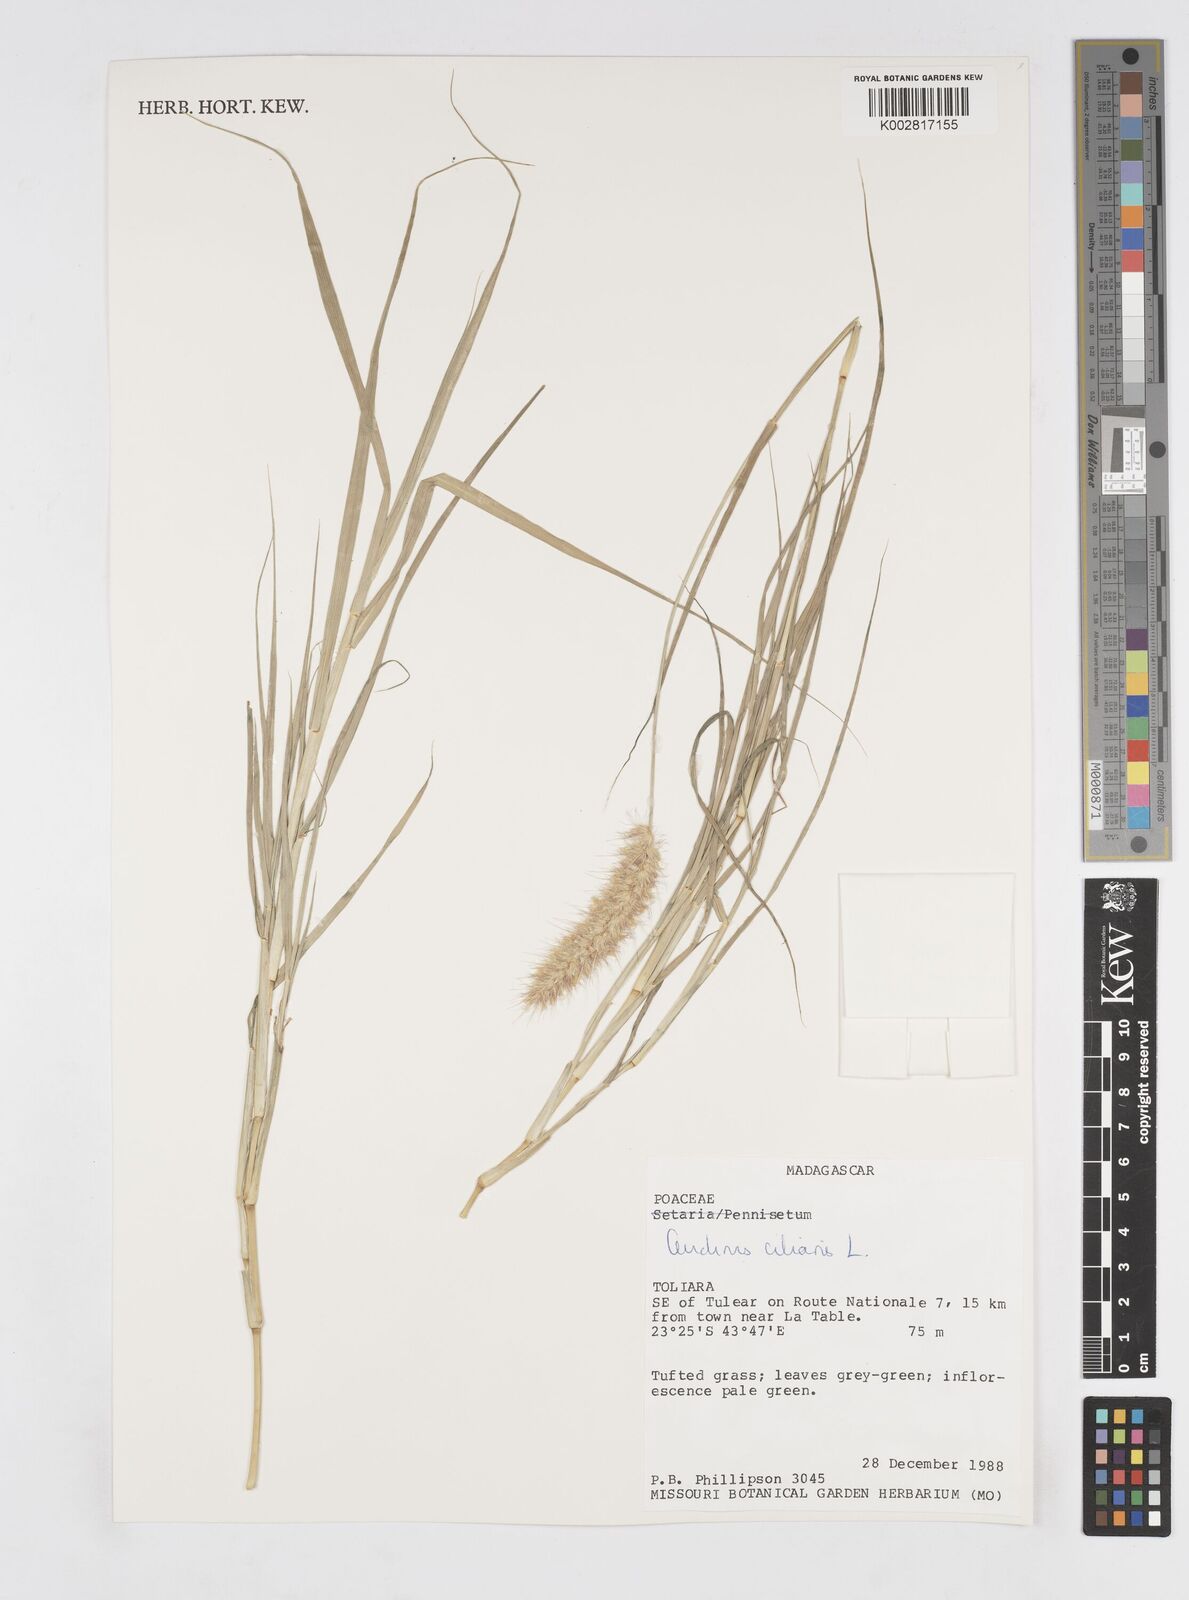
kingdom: Plantae
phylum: Tracheophyta
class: Liliopsida
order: Poales
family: Poaceae
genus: Cenchrus
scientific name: Cenchrus ciliaris
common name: Buffelgrass
